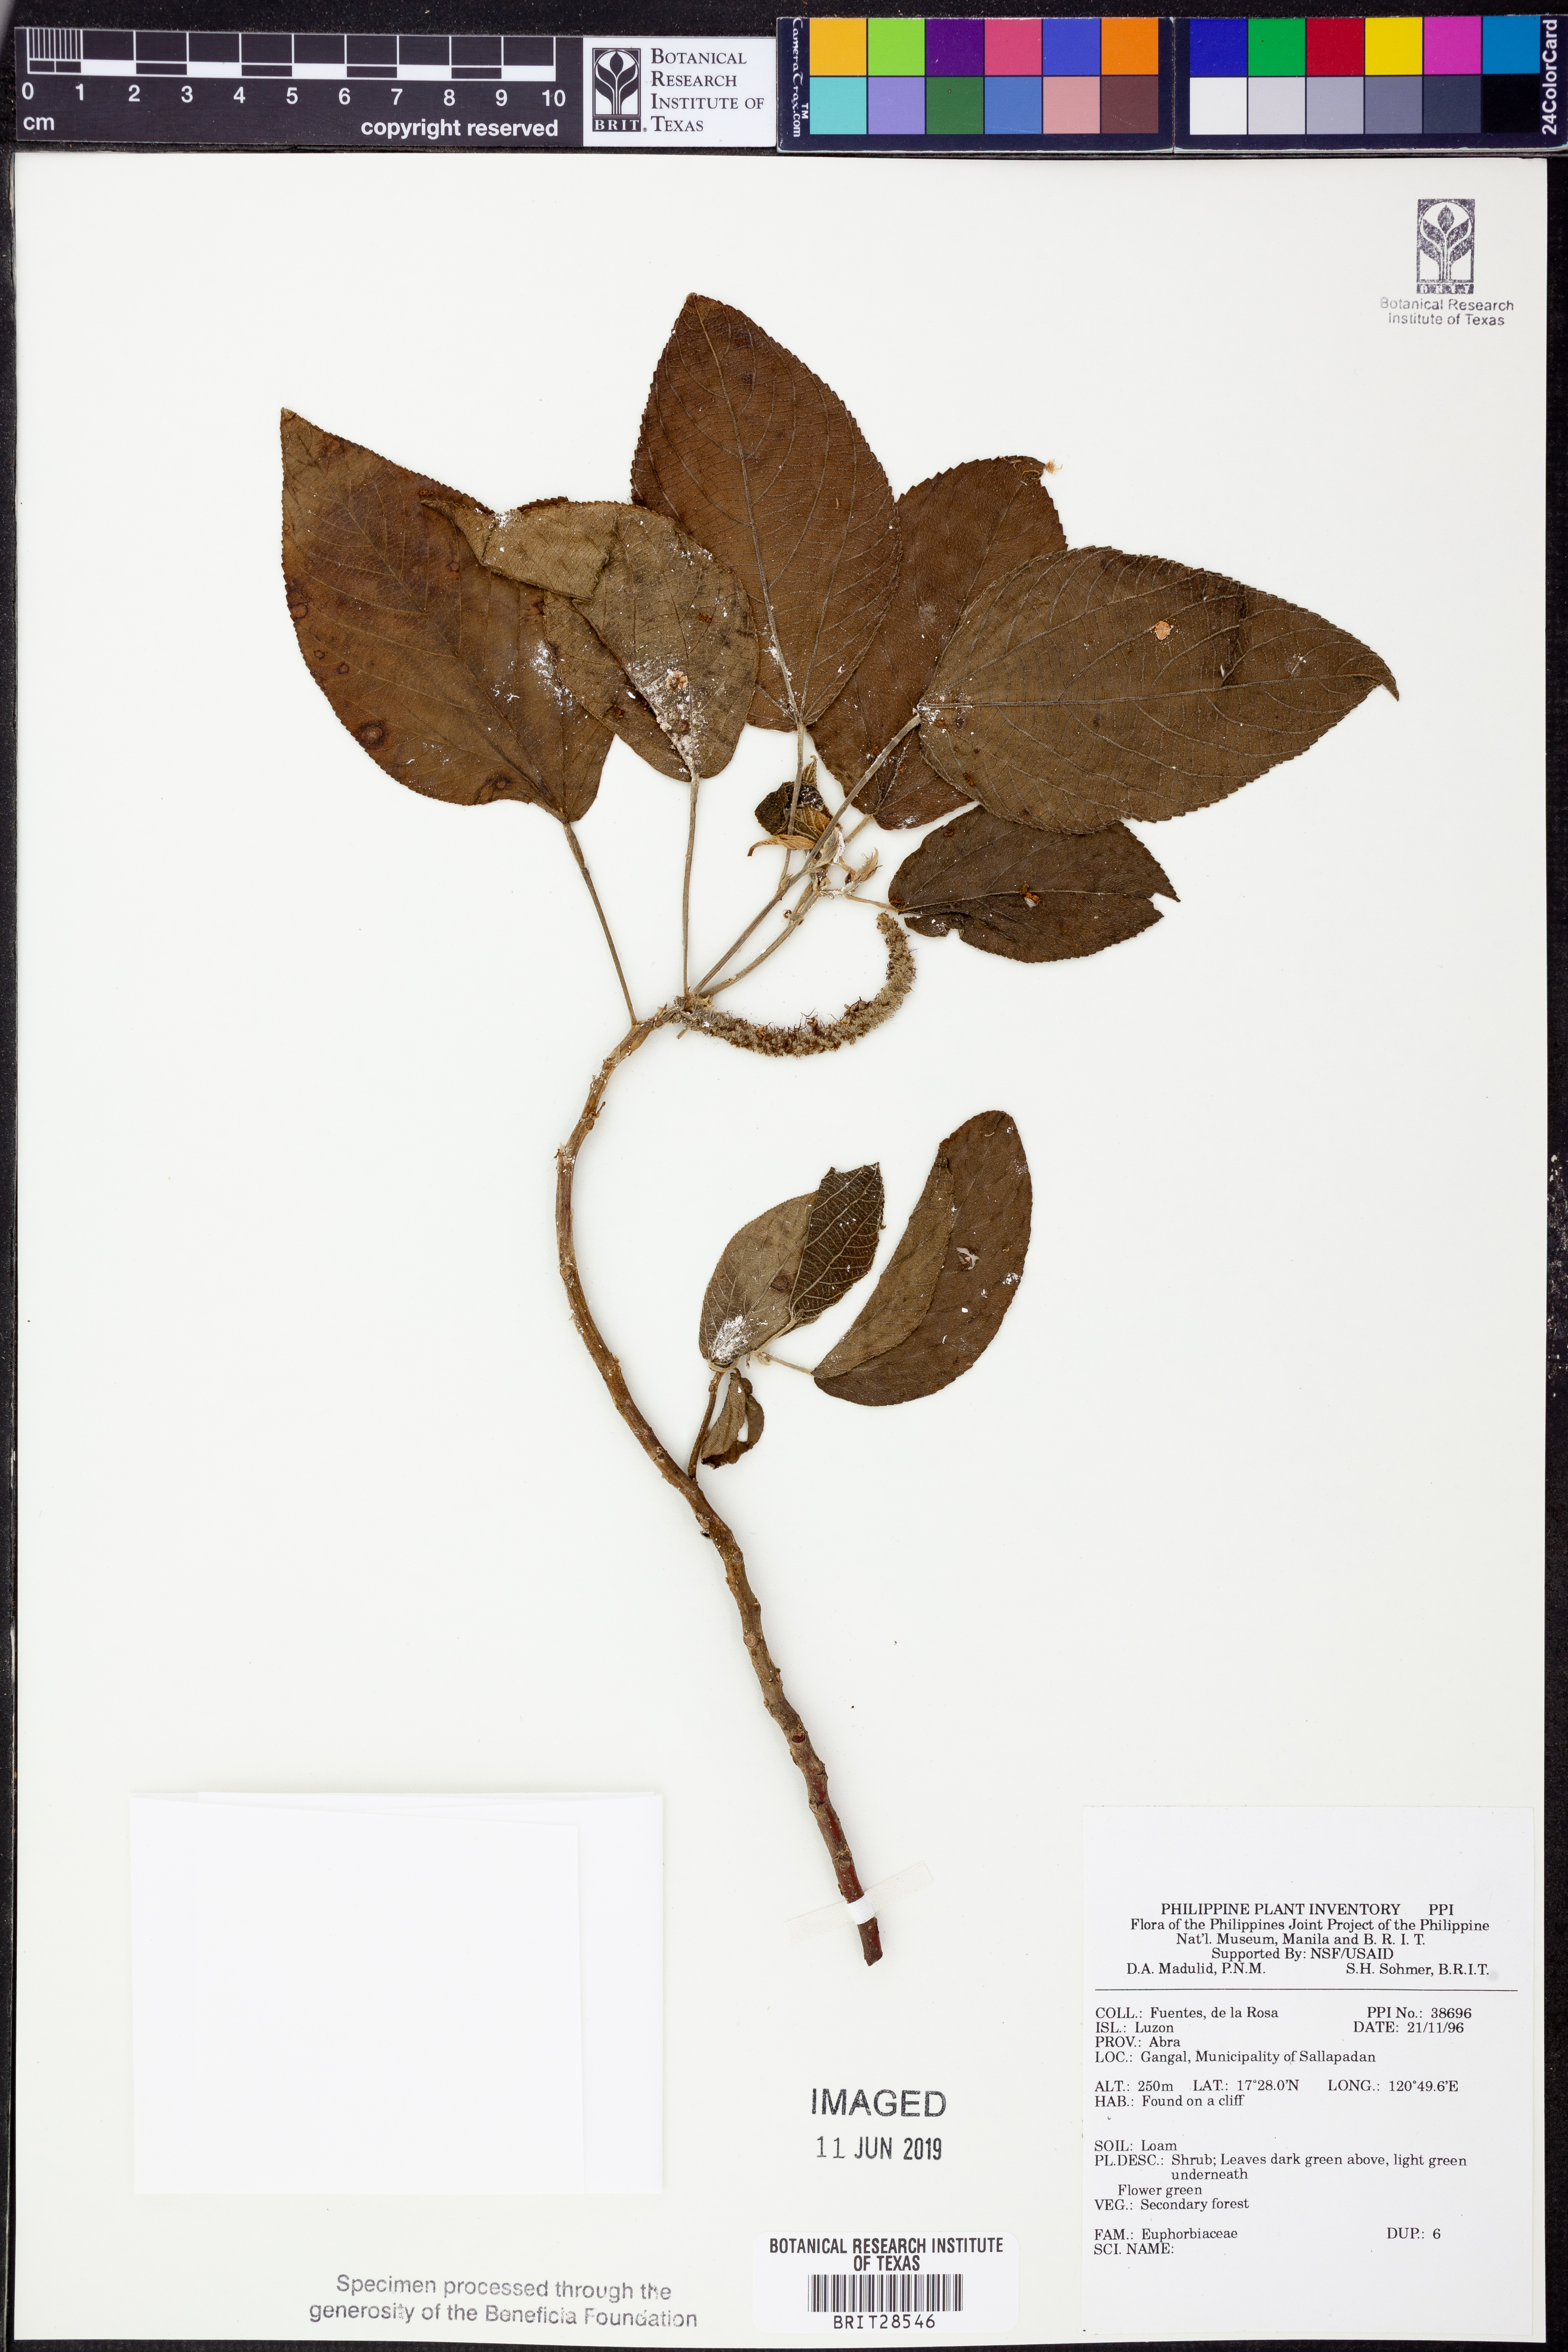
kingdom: Plantae
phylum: Tracheophyta
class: Magnoliopsida
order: Malpighiales
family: Euphorbiaceae
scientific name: Euphorbiaceae
